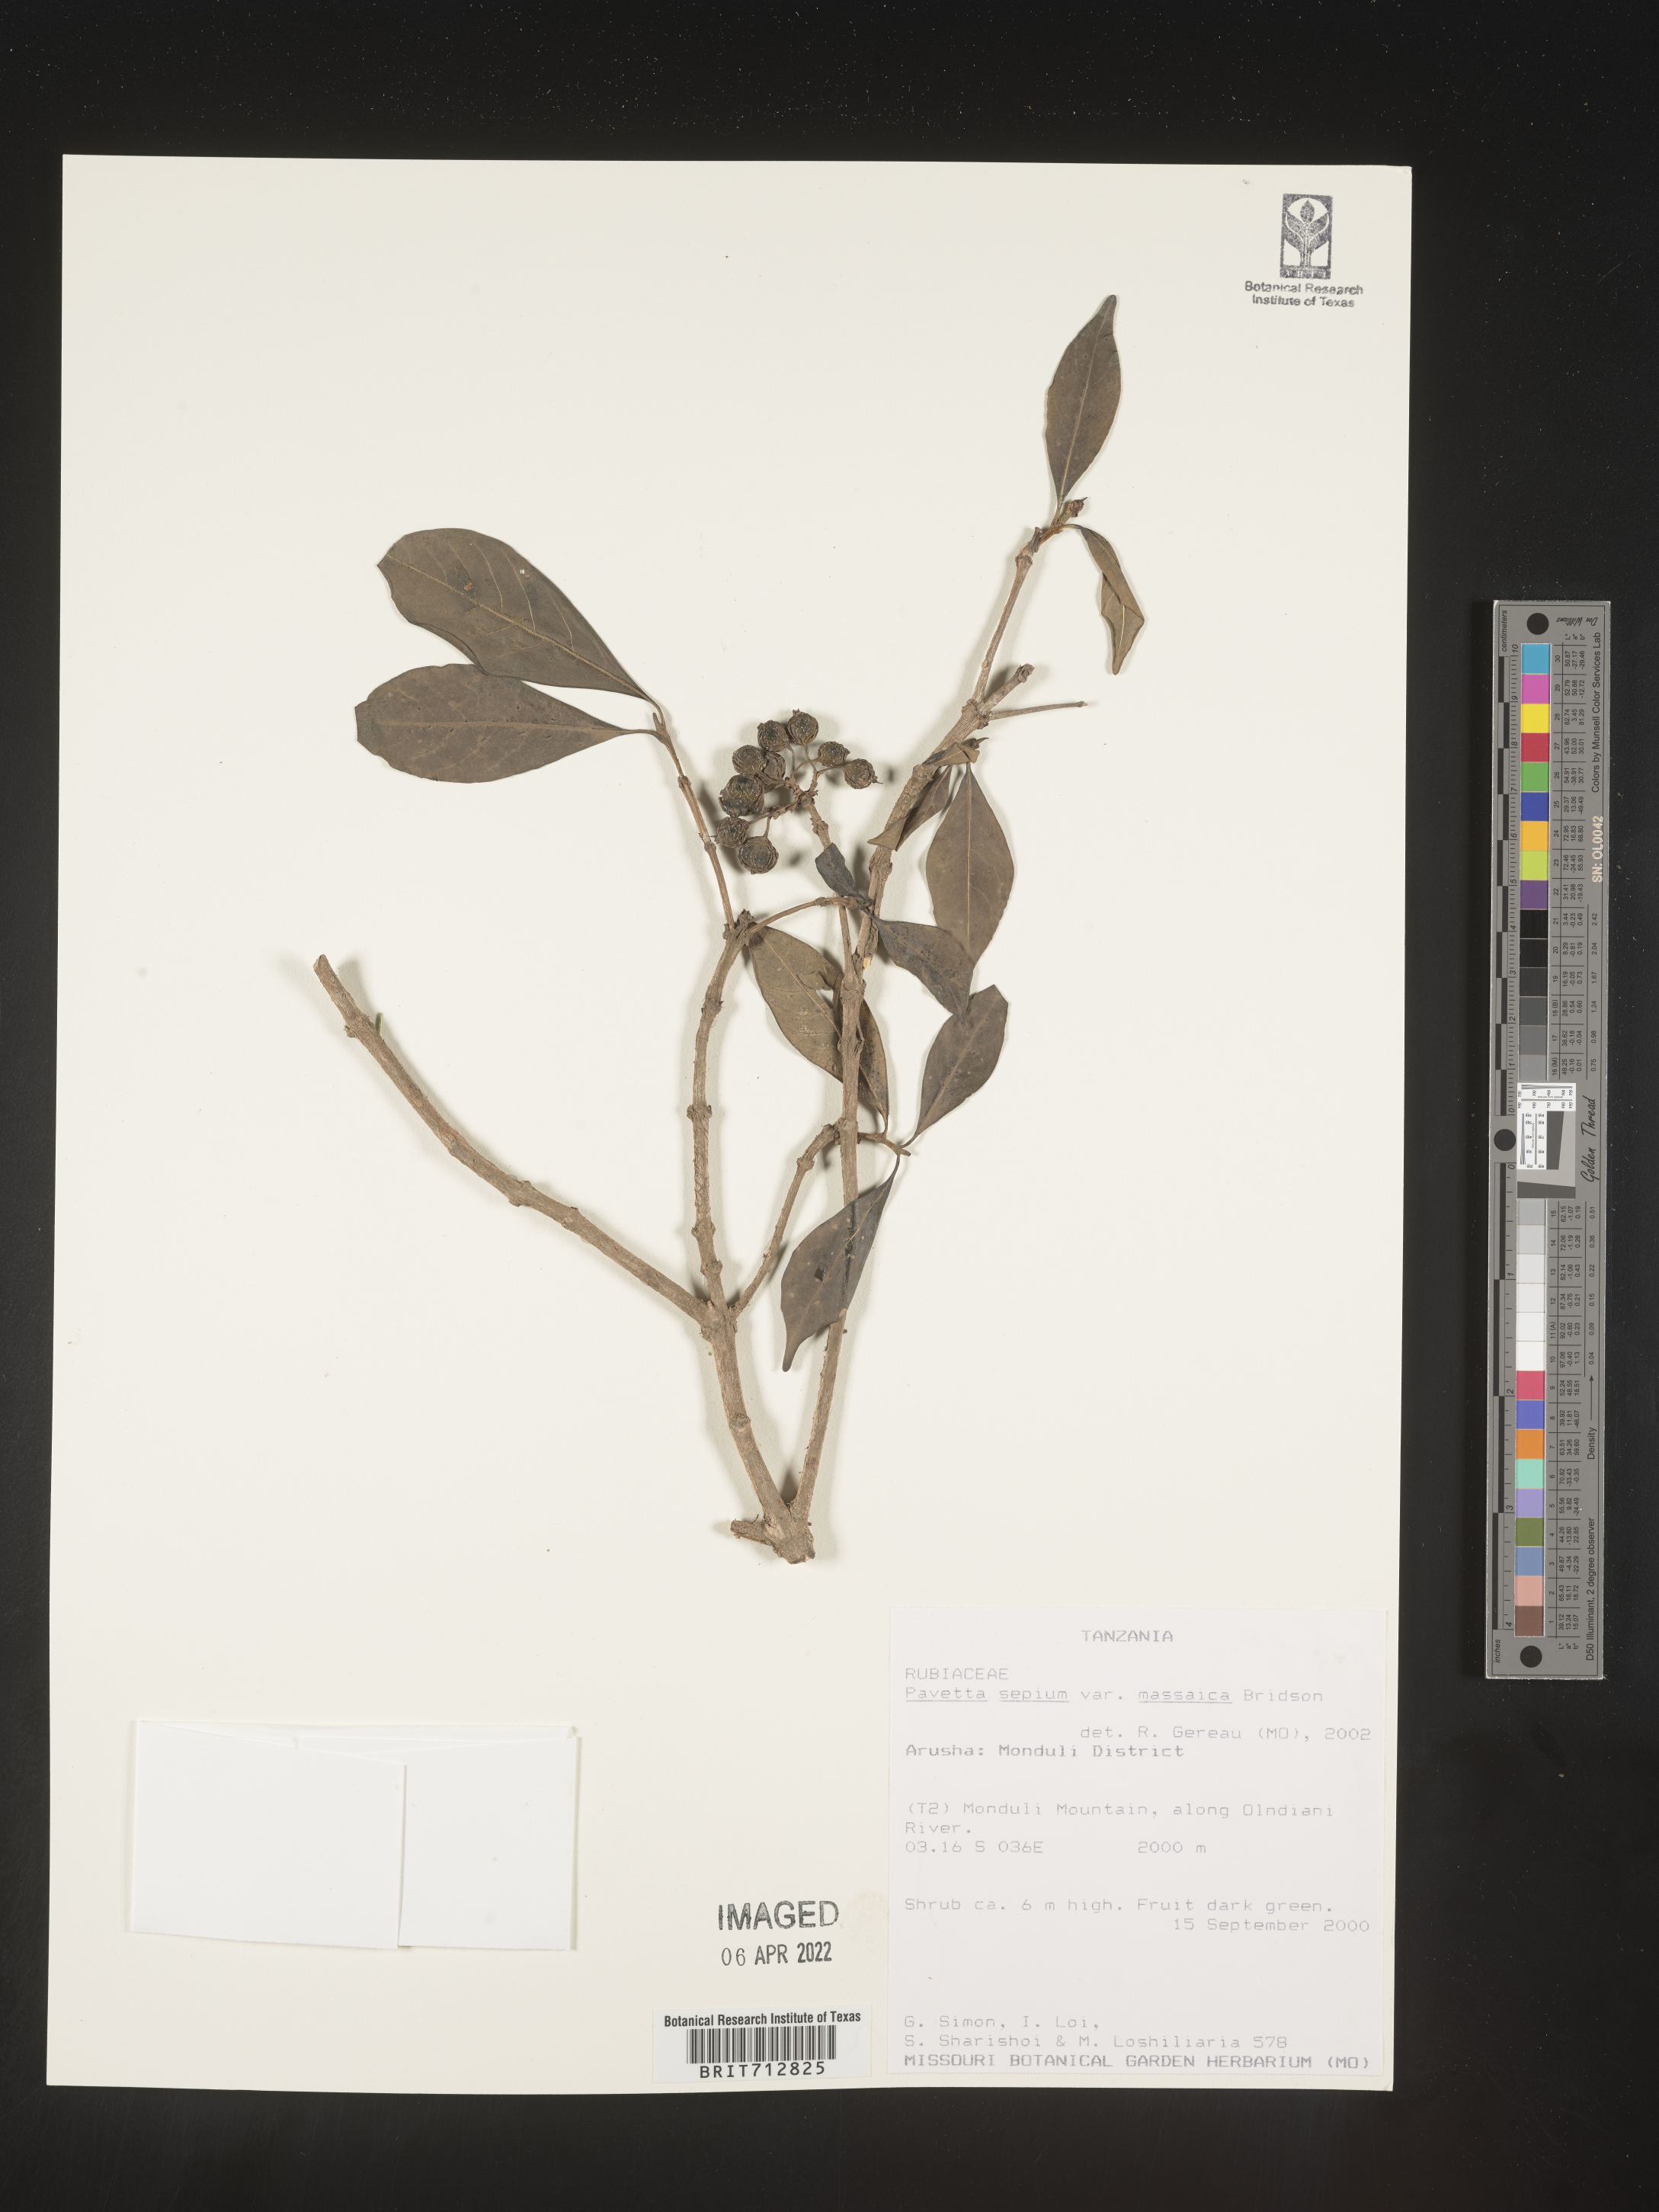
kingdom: Plantae
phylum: Tracheophyta
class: Magnoliopsida
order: Gentianales
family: Rubiaceae
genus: Pavetta
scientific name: Pavetta
